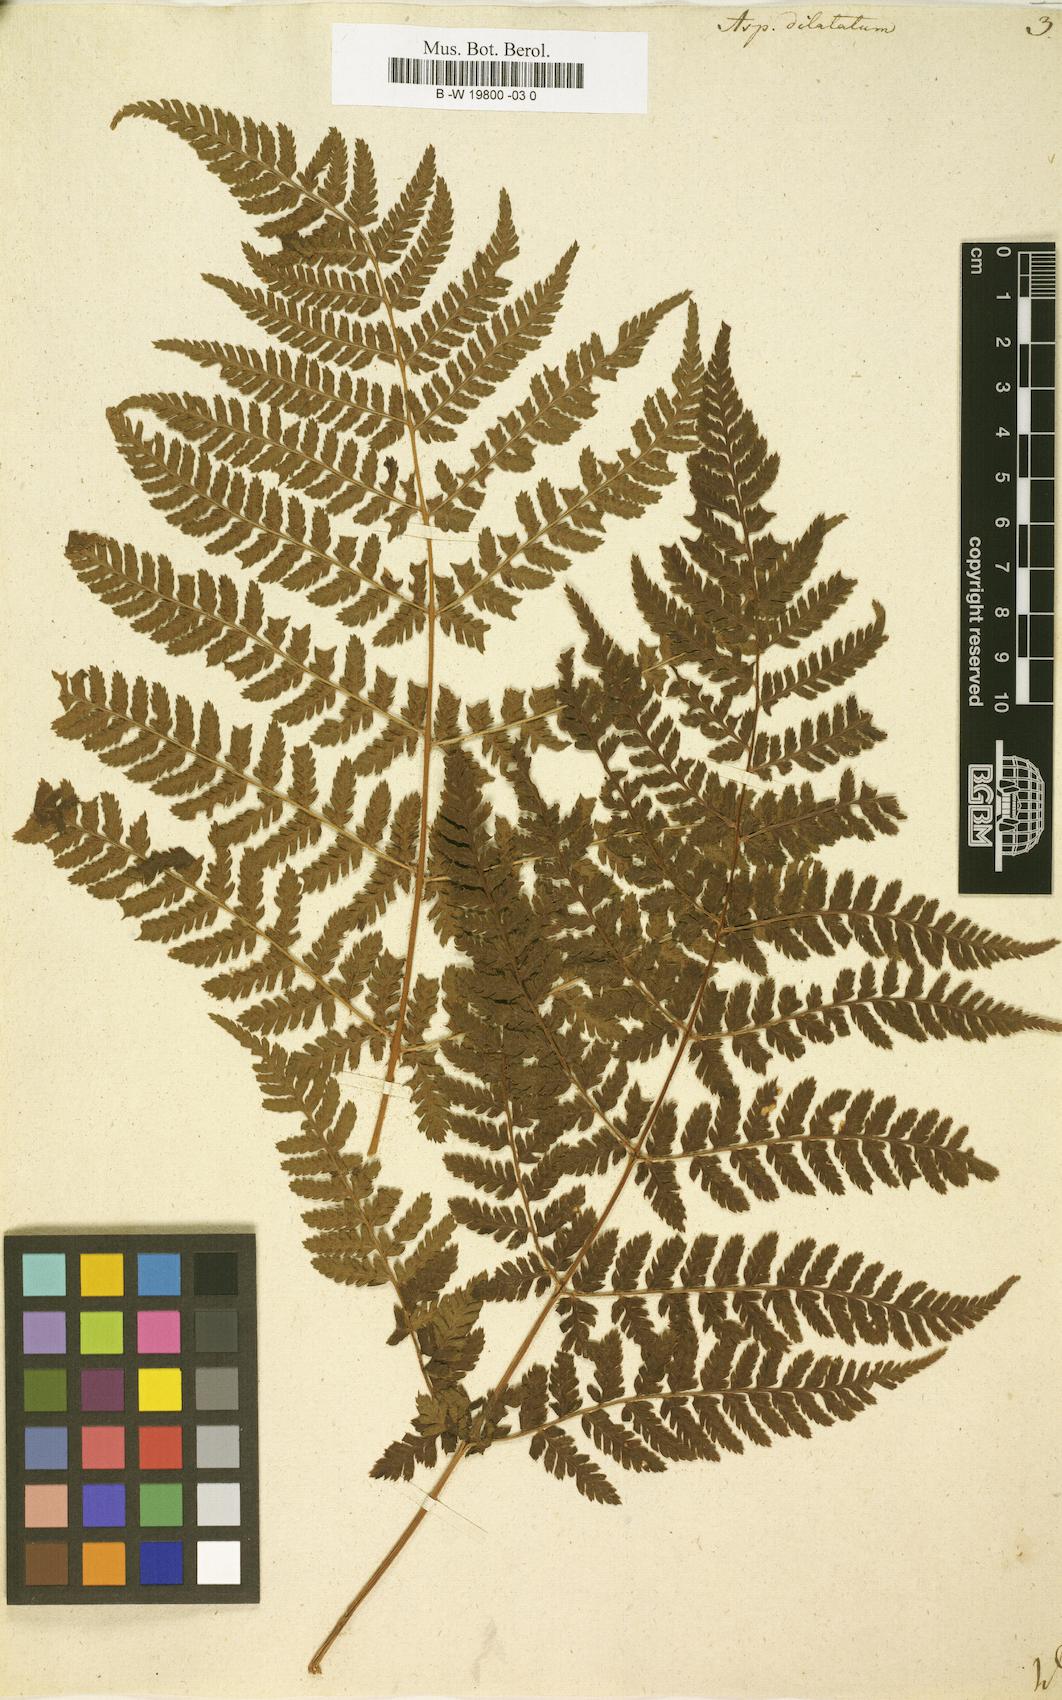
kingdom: Plantae
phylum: Tracheophyta
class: Polypodiopsida
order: Polypodiales
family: Dryopteridaceae
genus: Dryopteris
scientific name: Dryopteris dilatata
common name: Broad buckler-fern
